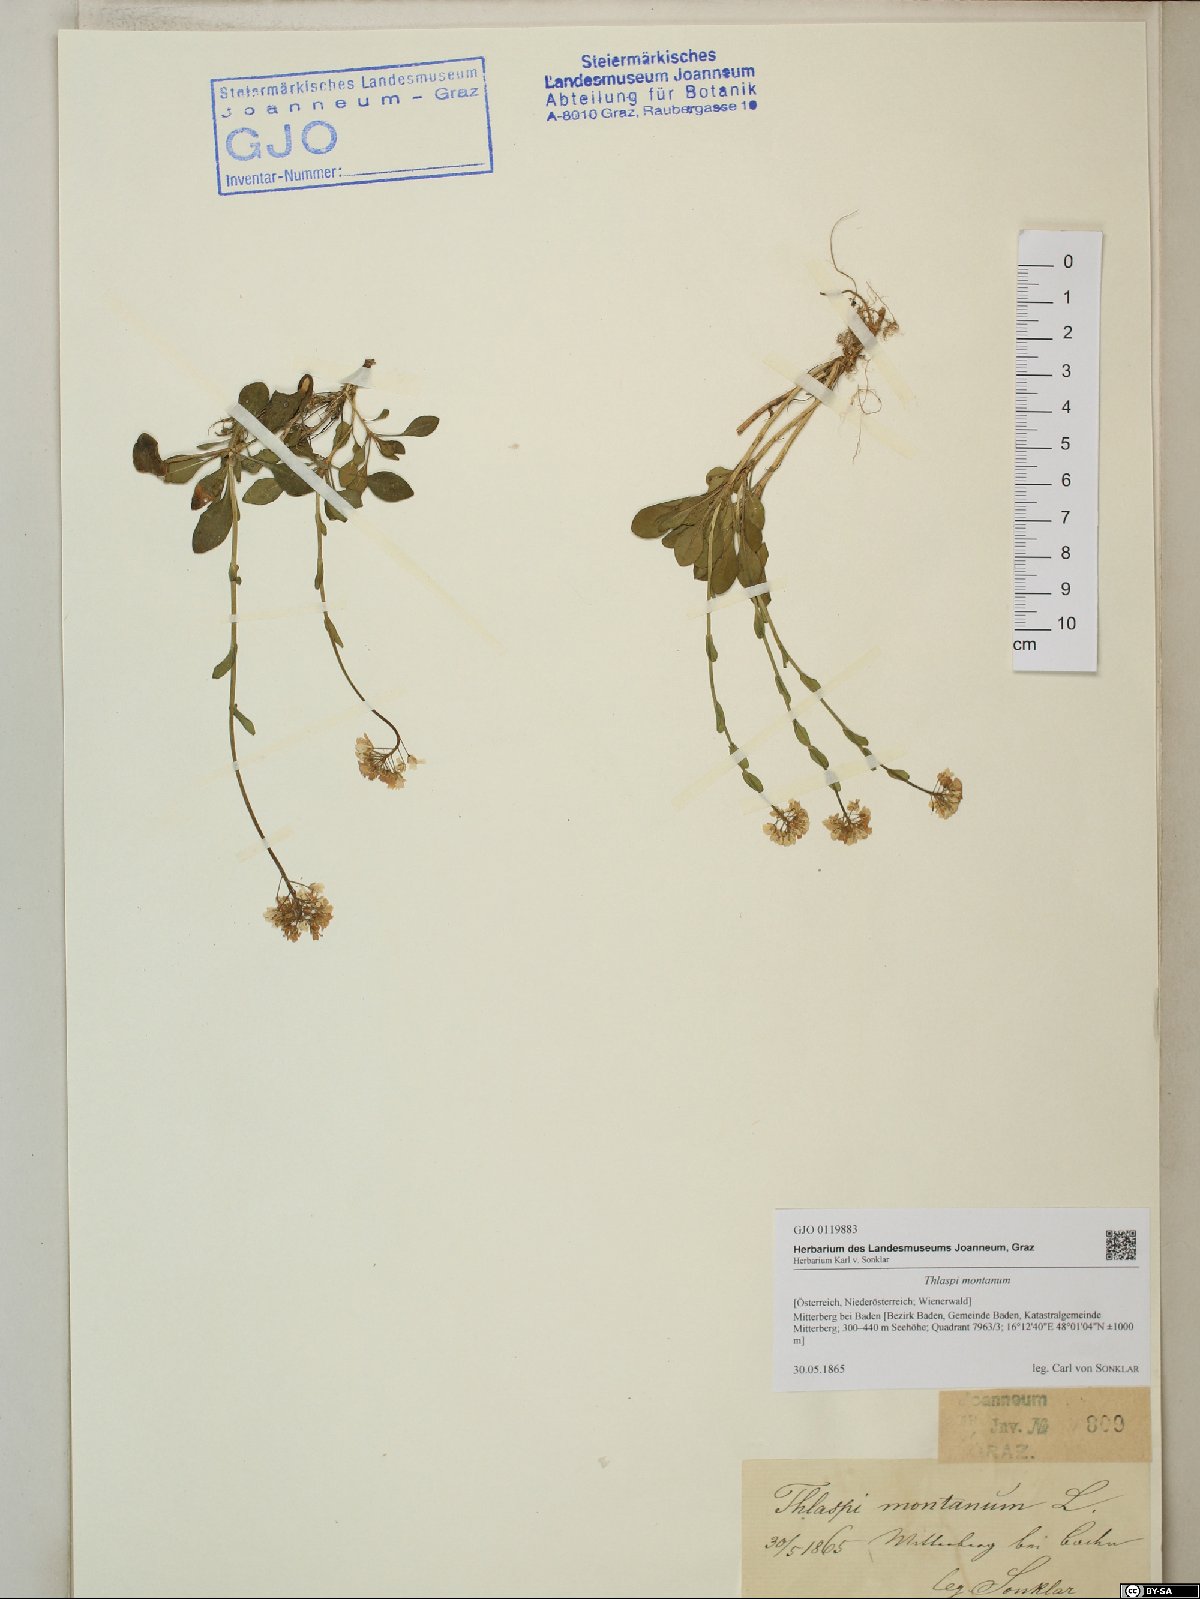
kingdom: Plantae
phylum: Tracheophyta
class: Magnoliopsida
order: Brassicales
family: Brassicaceae
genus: Noccaea
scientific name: Noccaea montana
